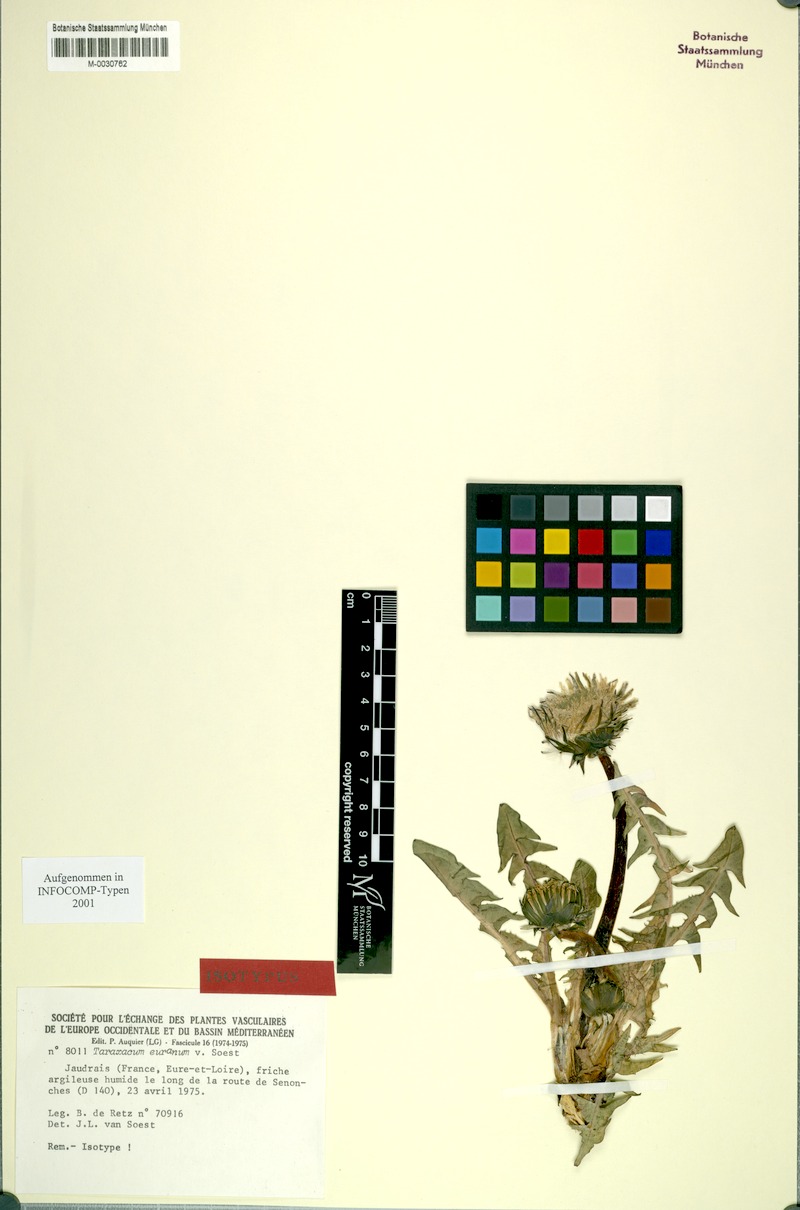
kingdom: Plantae
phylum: Tracheophyta
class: Magnoliopsida
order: Asterales
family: Asteraceae
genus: Taraxacum
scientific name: Taraxacum euranum
